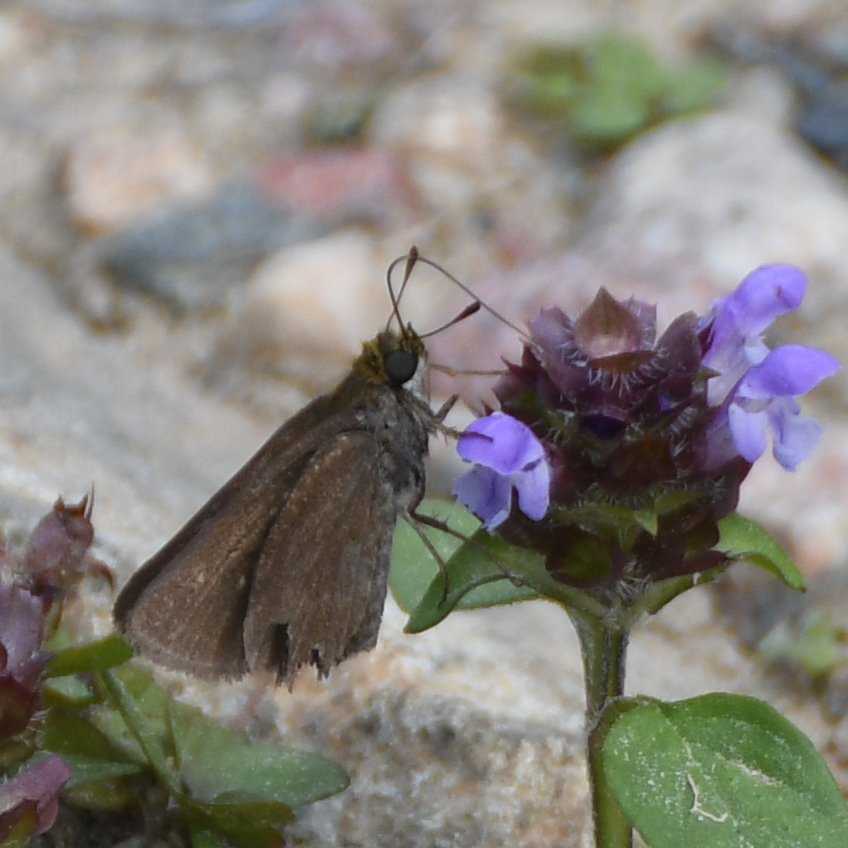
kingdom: Animalia
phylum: Arthropoda
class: Insecta
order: Lepidoptera
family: Hesperiidae
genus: Euphyes
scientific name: Euphyes vestris
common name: Dun Skipper
